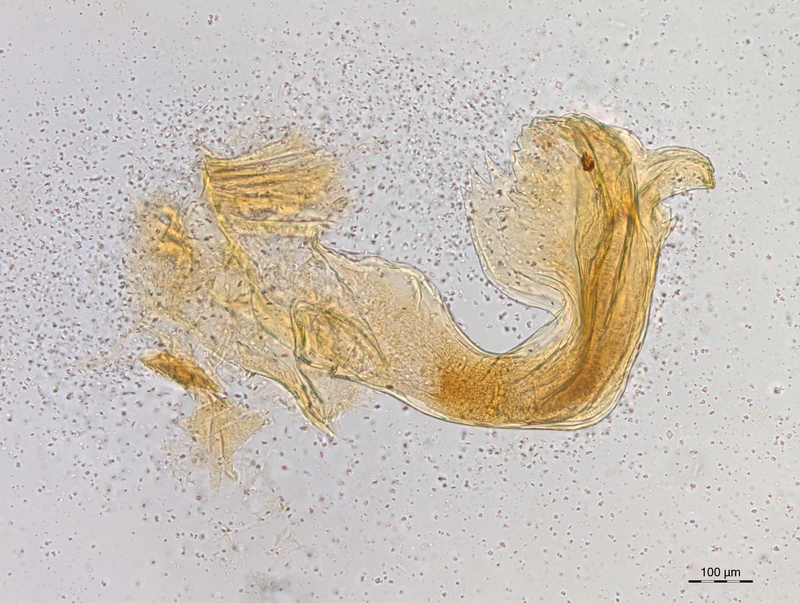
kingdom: Animalia
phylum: Arthropoda
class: Diplopoda
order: Chordeumatida
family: Craspedosomatidae
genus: Craspedosoma
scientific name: Craspedosoma taurinorum
